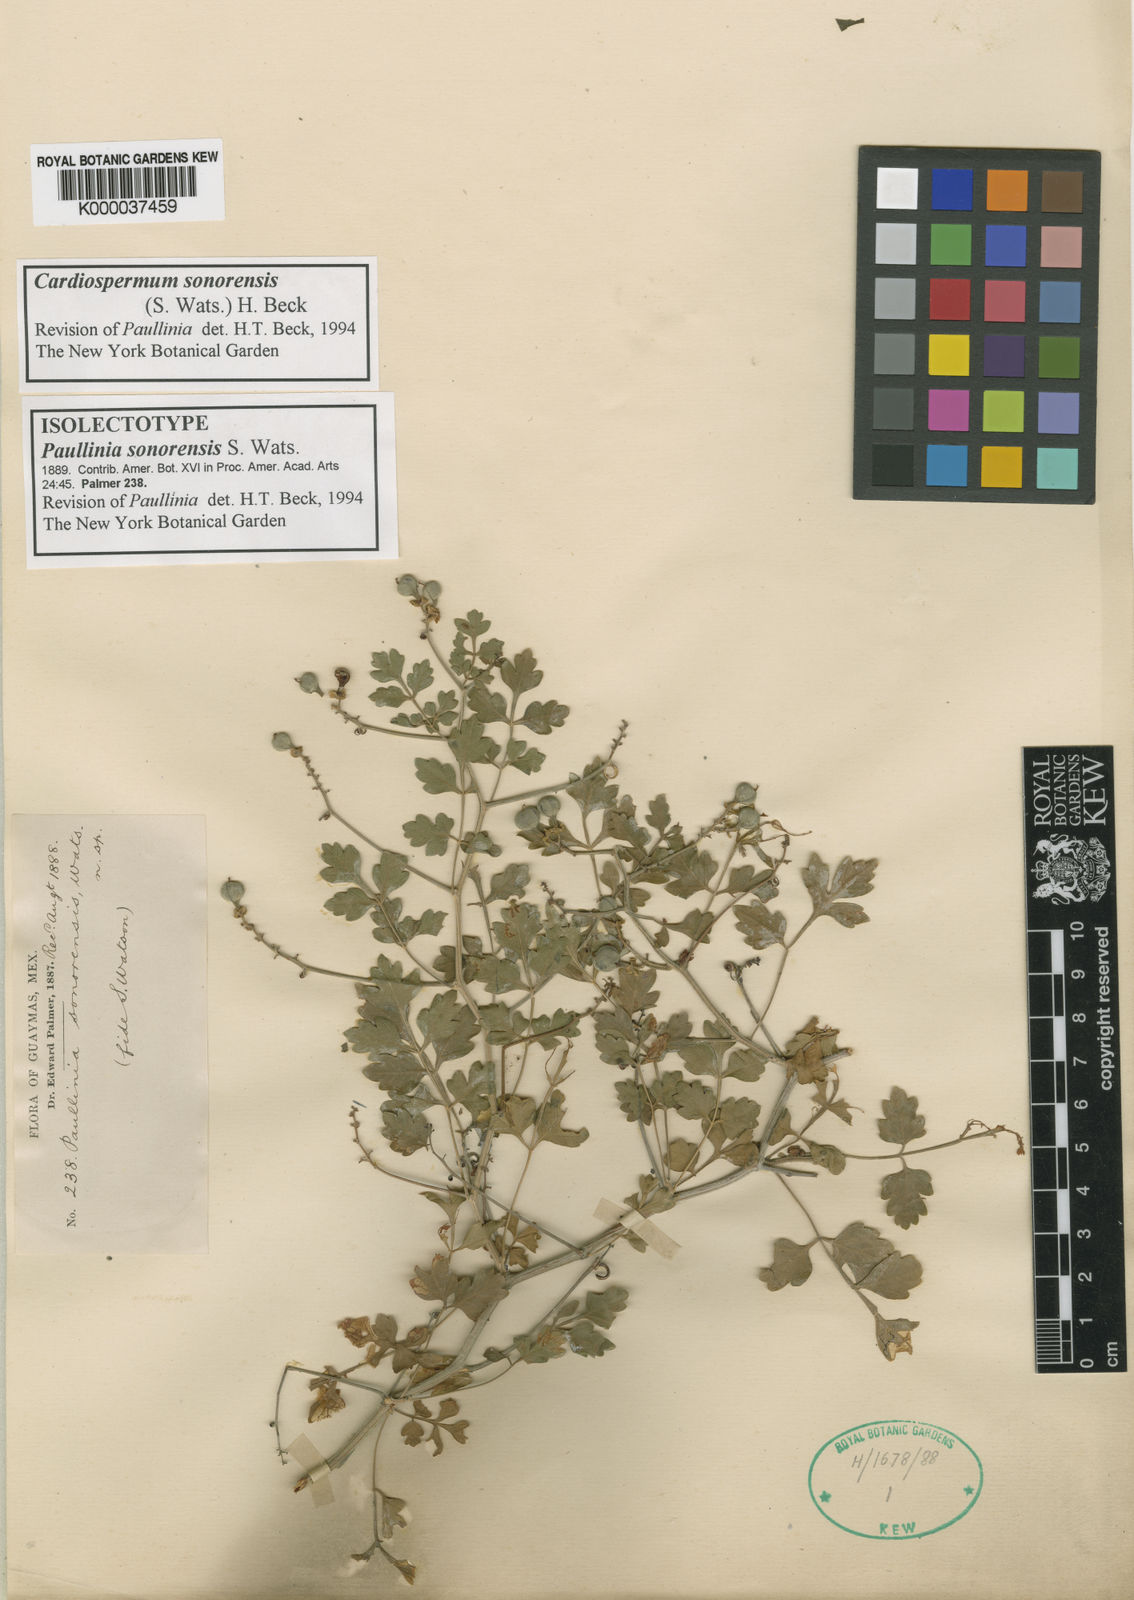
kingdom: Plantae
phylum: Tracheophyta
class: Magnoliopsida
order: Sapindales
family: Sapindaceae
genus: Cardiospermum
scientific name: Cardiospermum
